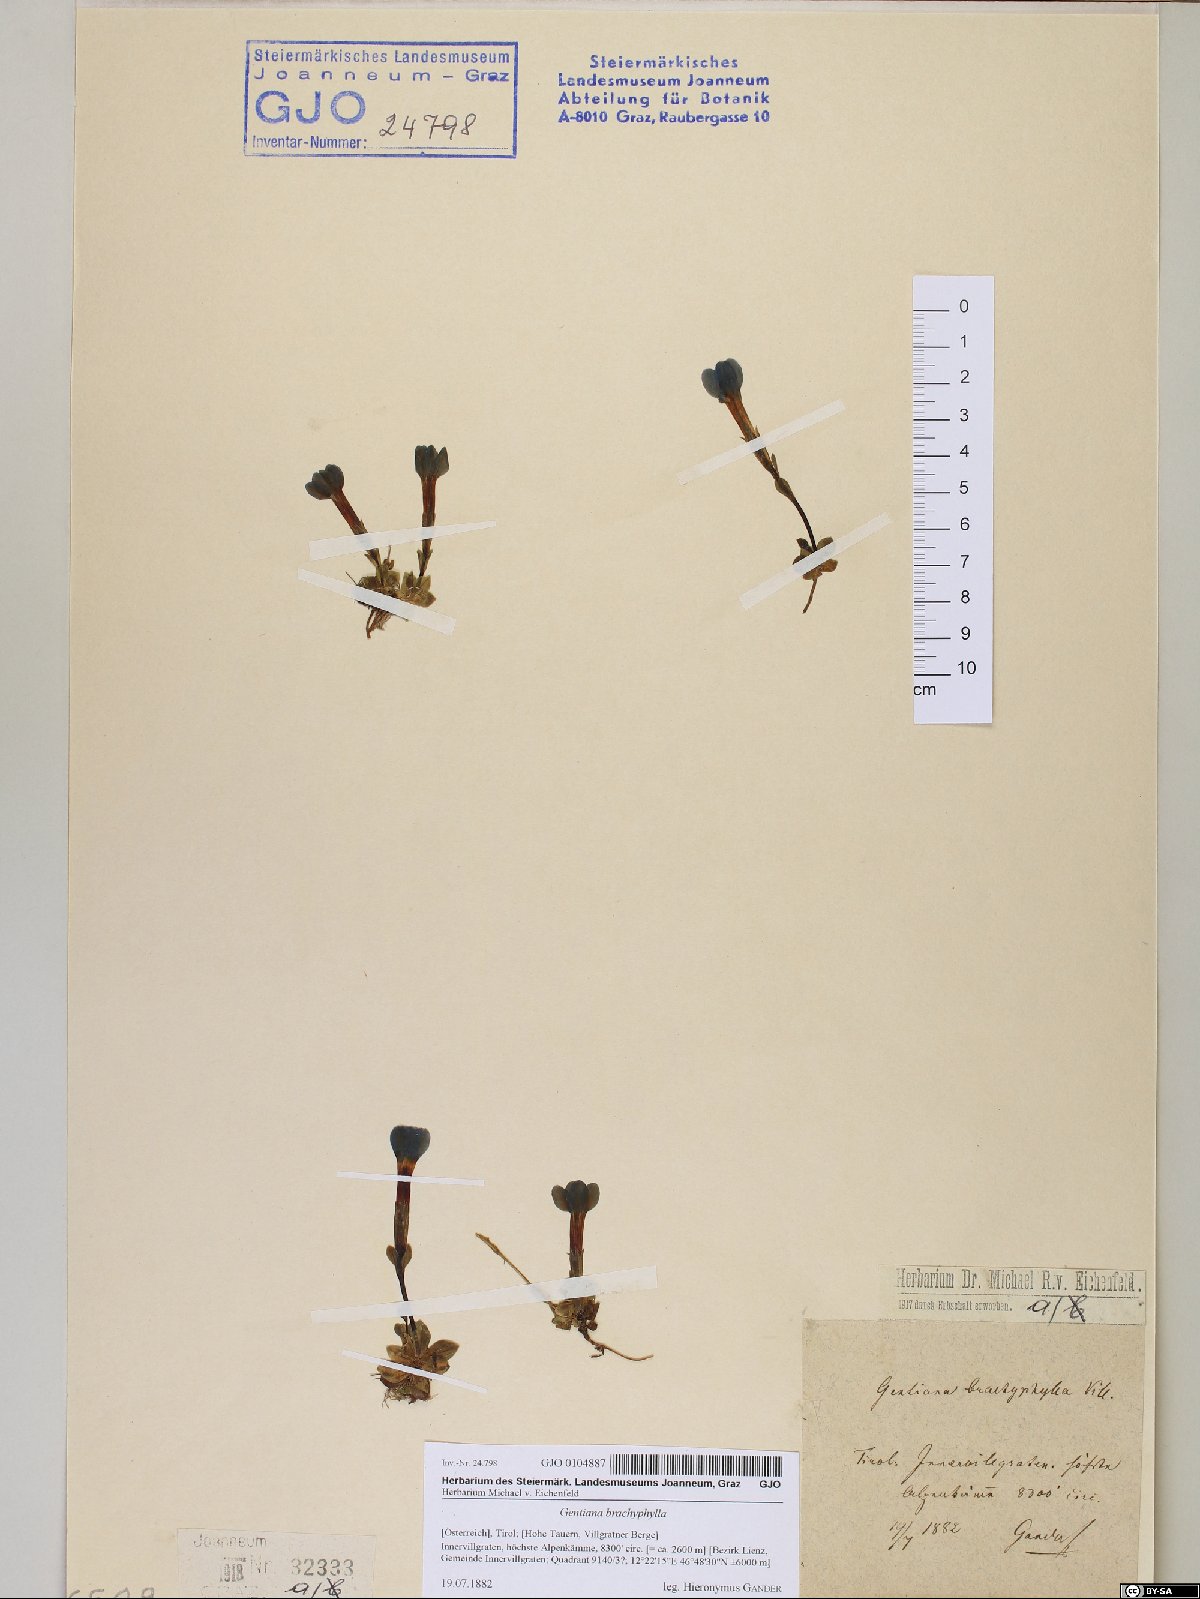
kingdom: Plantae
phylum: Tracheophyta
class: Magnoliopsida
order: Gentianales
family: Gentianaceae
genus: Gentiana
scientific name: Gentiana brachyphylla
